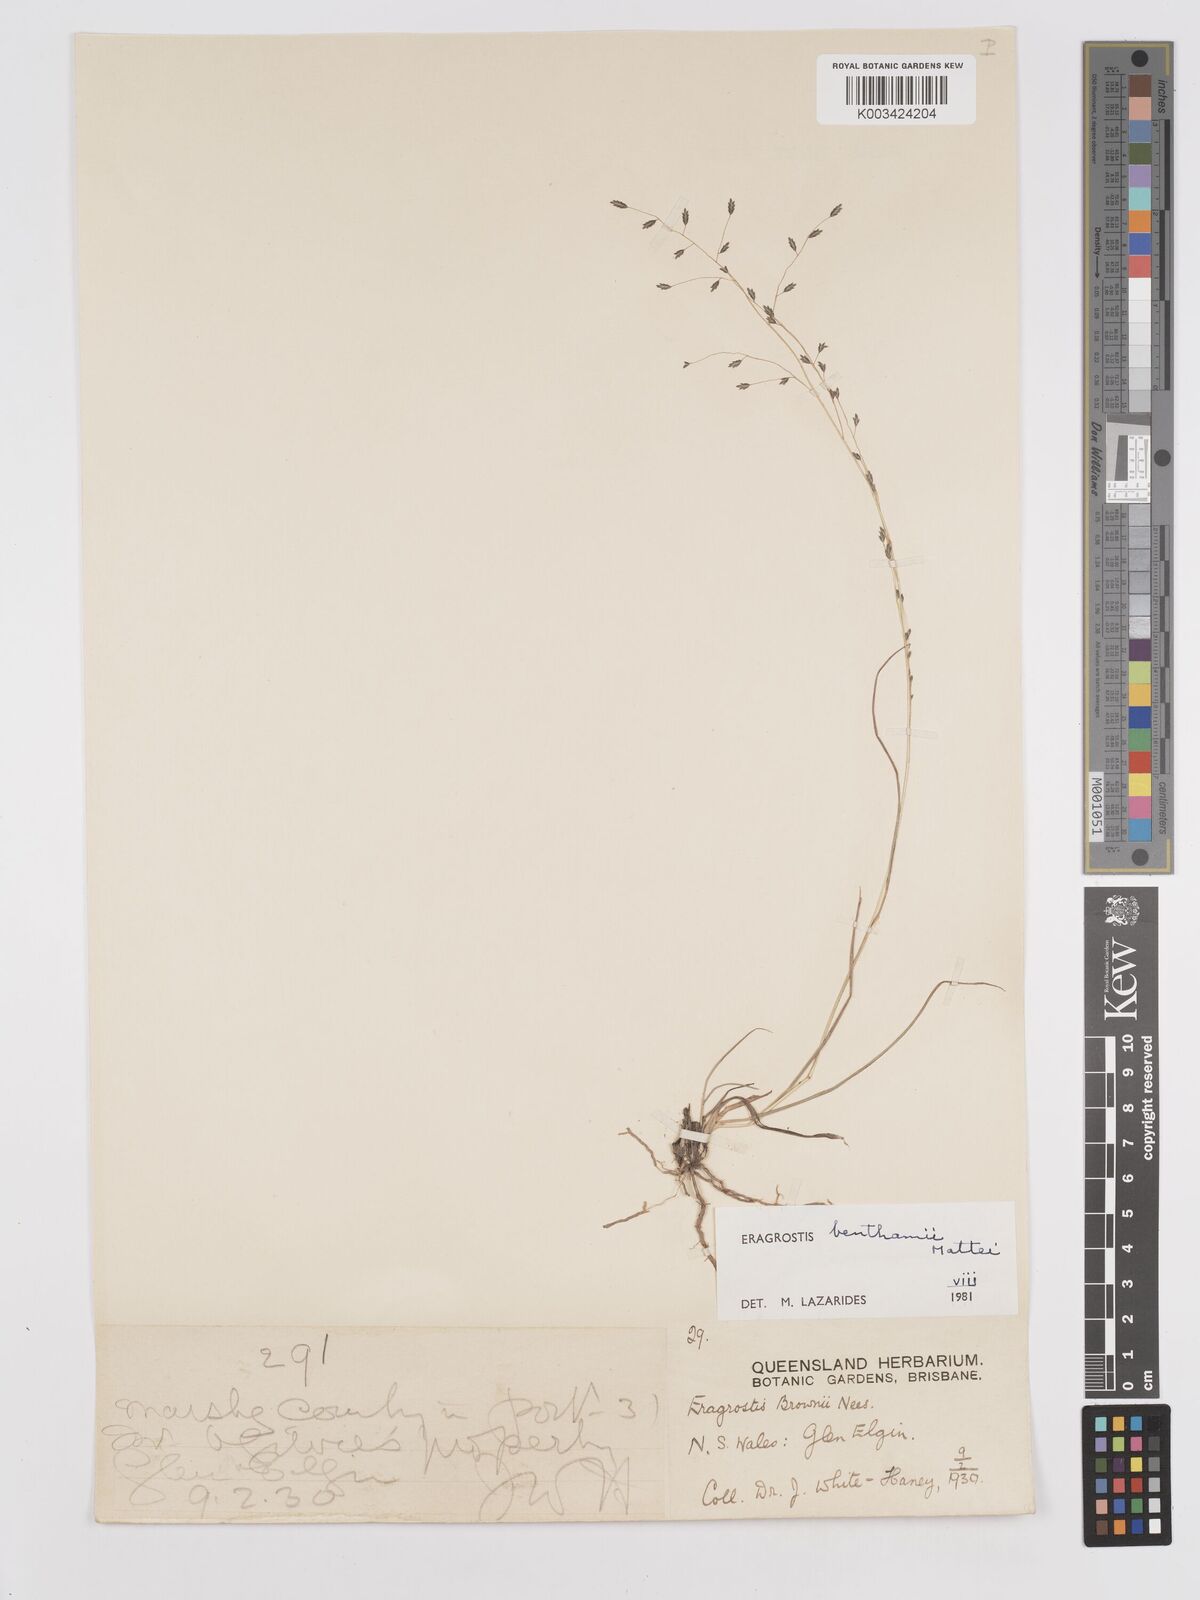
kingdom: Plantae
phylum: Tracheophyta
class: Liliopsida
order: Poales
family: Poaceae
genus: Eragrostis
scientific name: Eragrostis brownii
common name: Lovegrass
